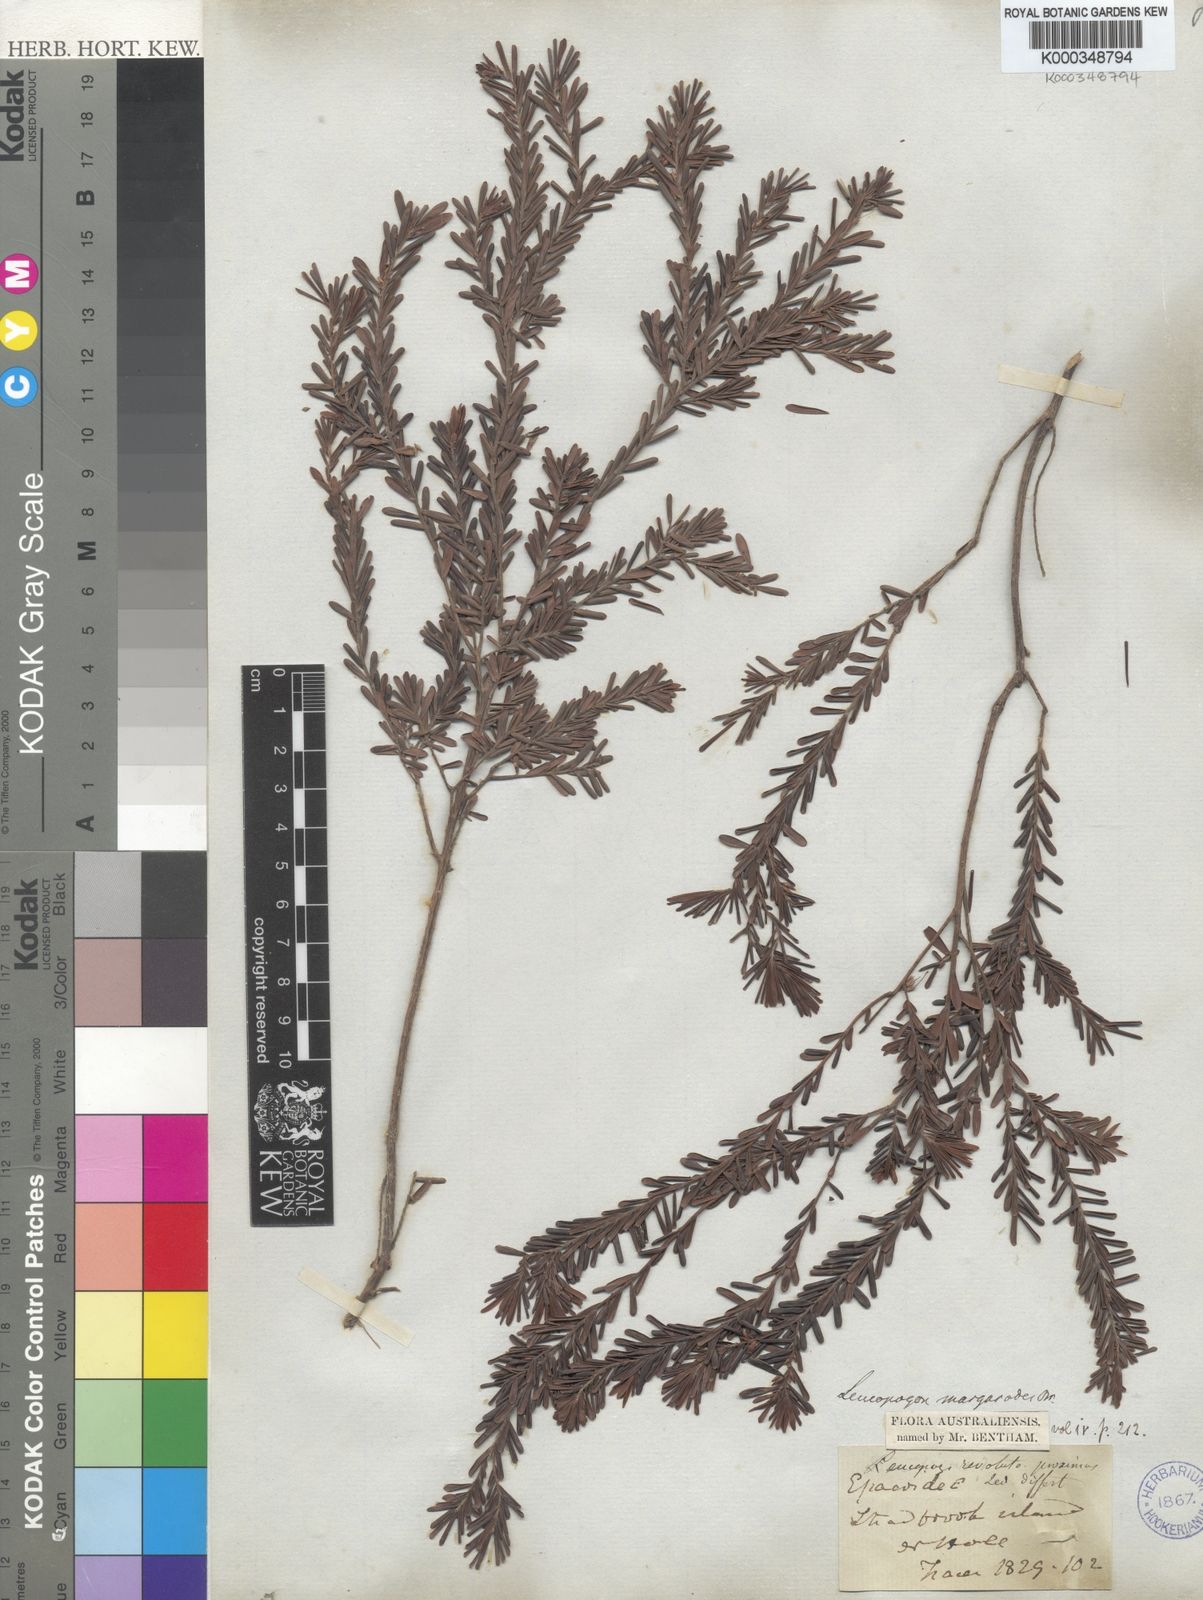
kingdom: Plantae
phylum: Tracheophyta
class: Magnoliopsida
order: Ericales
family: Ericaceae
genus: Styphelia
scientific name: Styphelia margarodes
